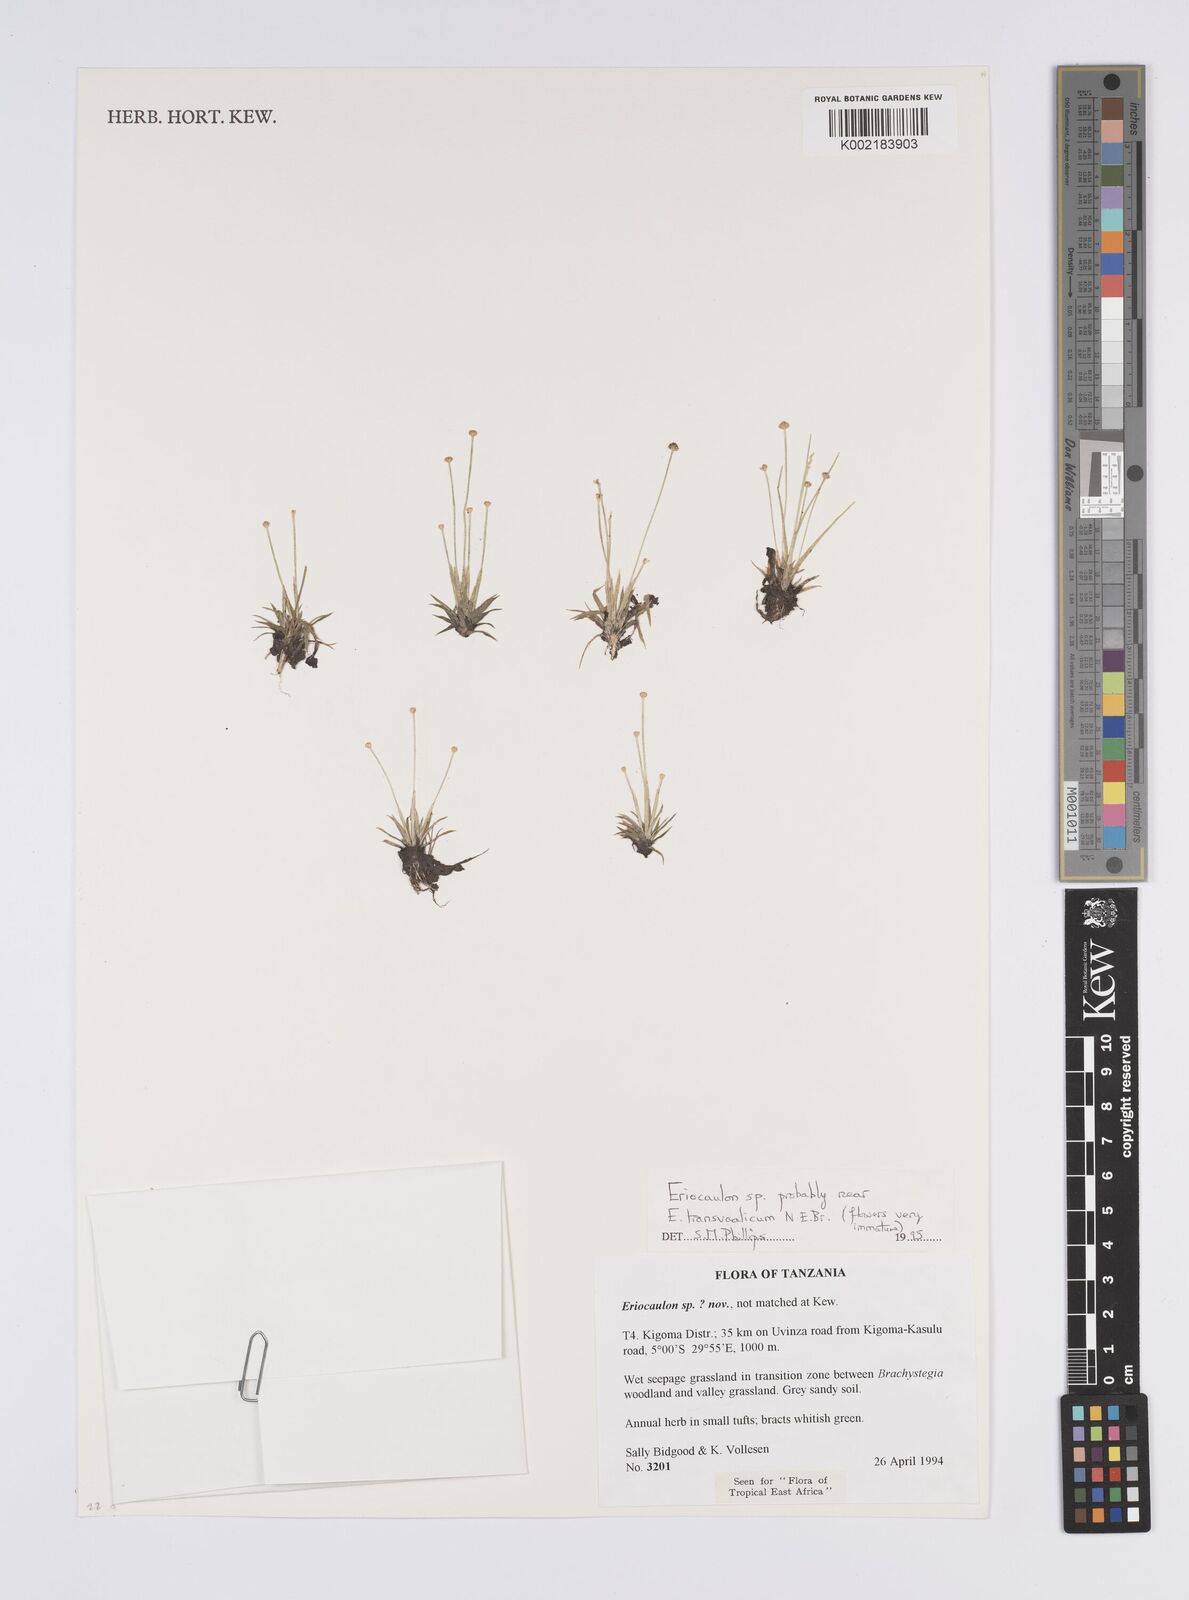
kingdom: Plantae
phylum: Tracheophyta
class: Liliopsida
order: Poales
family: Eriocaulaceae
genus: Eriocaulon
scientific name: Eriocaulon transvaalicum
